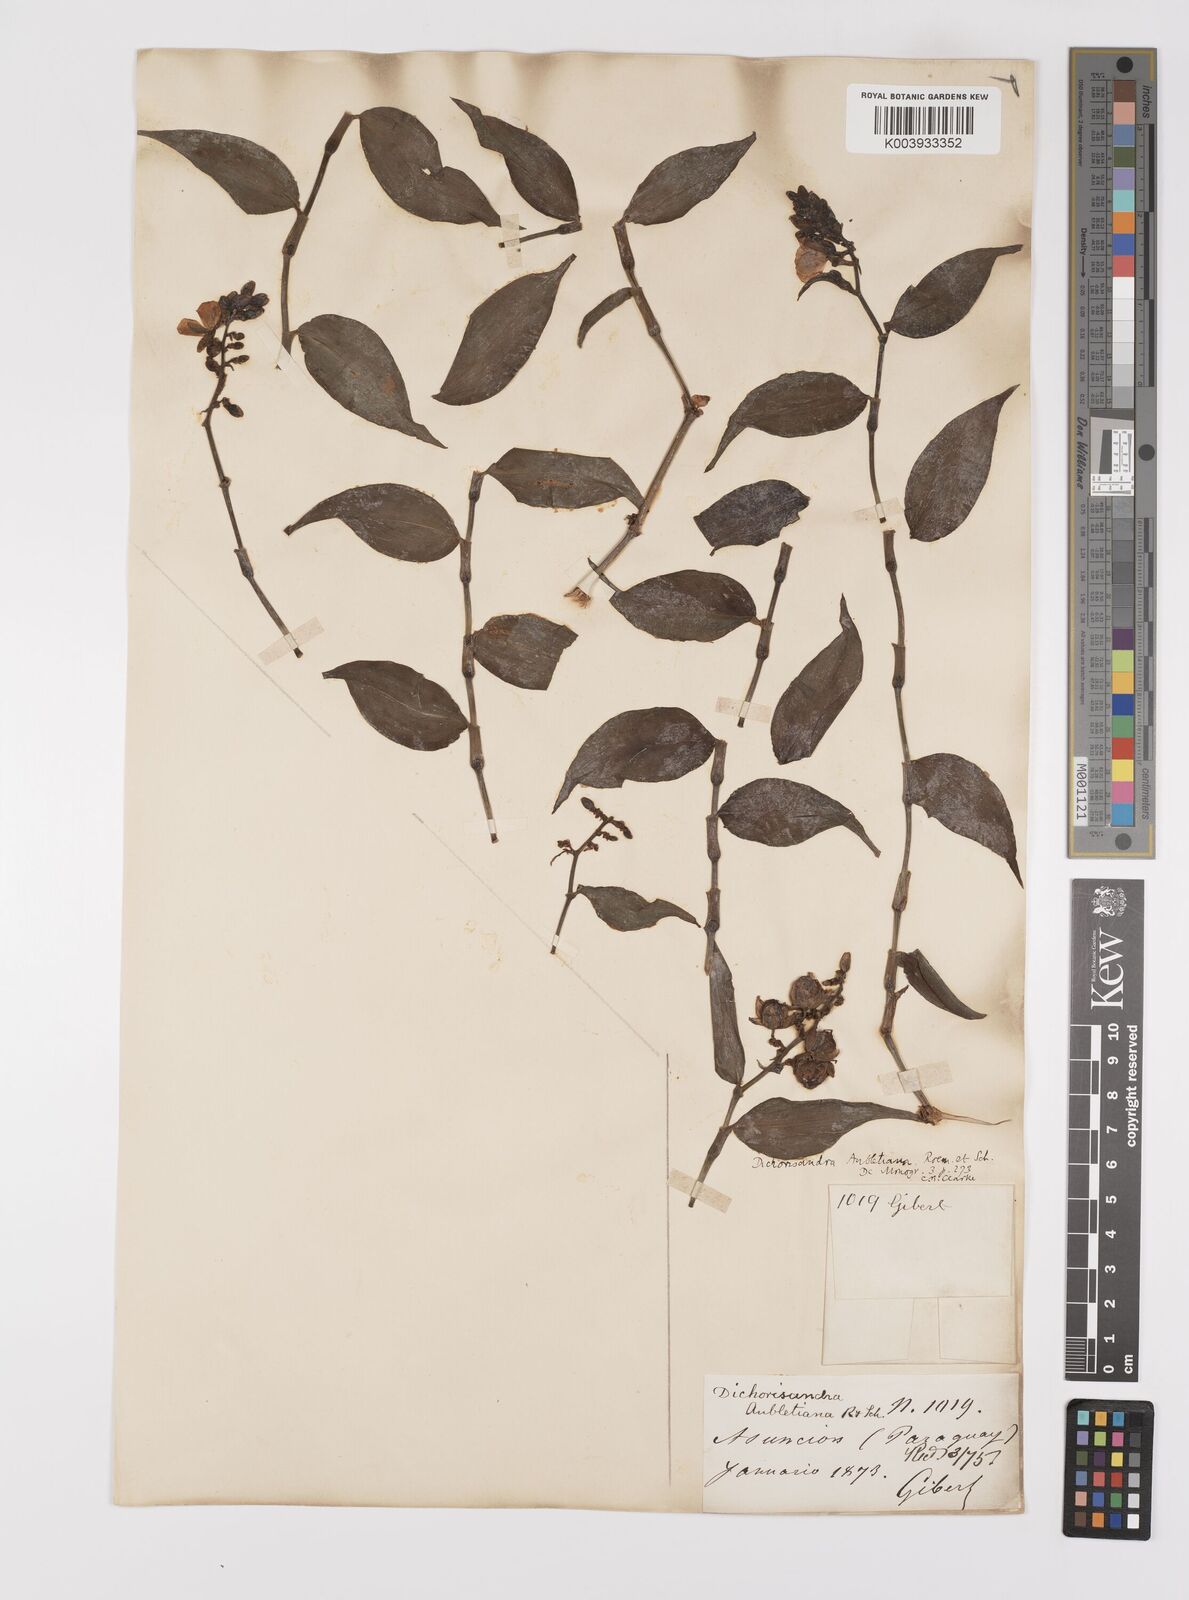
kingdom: Plantae
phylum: Tracheophyta
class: Liliopsida
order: Commelinales
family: Commelinaceae
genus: Dichorisandra
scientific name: Dichorisandra hexandra
